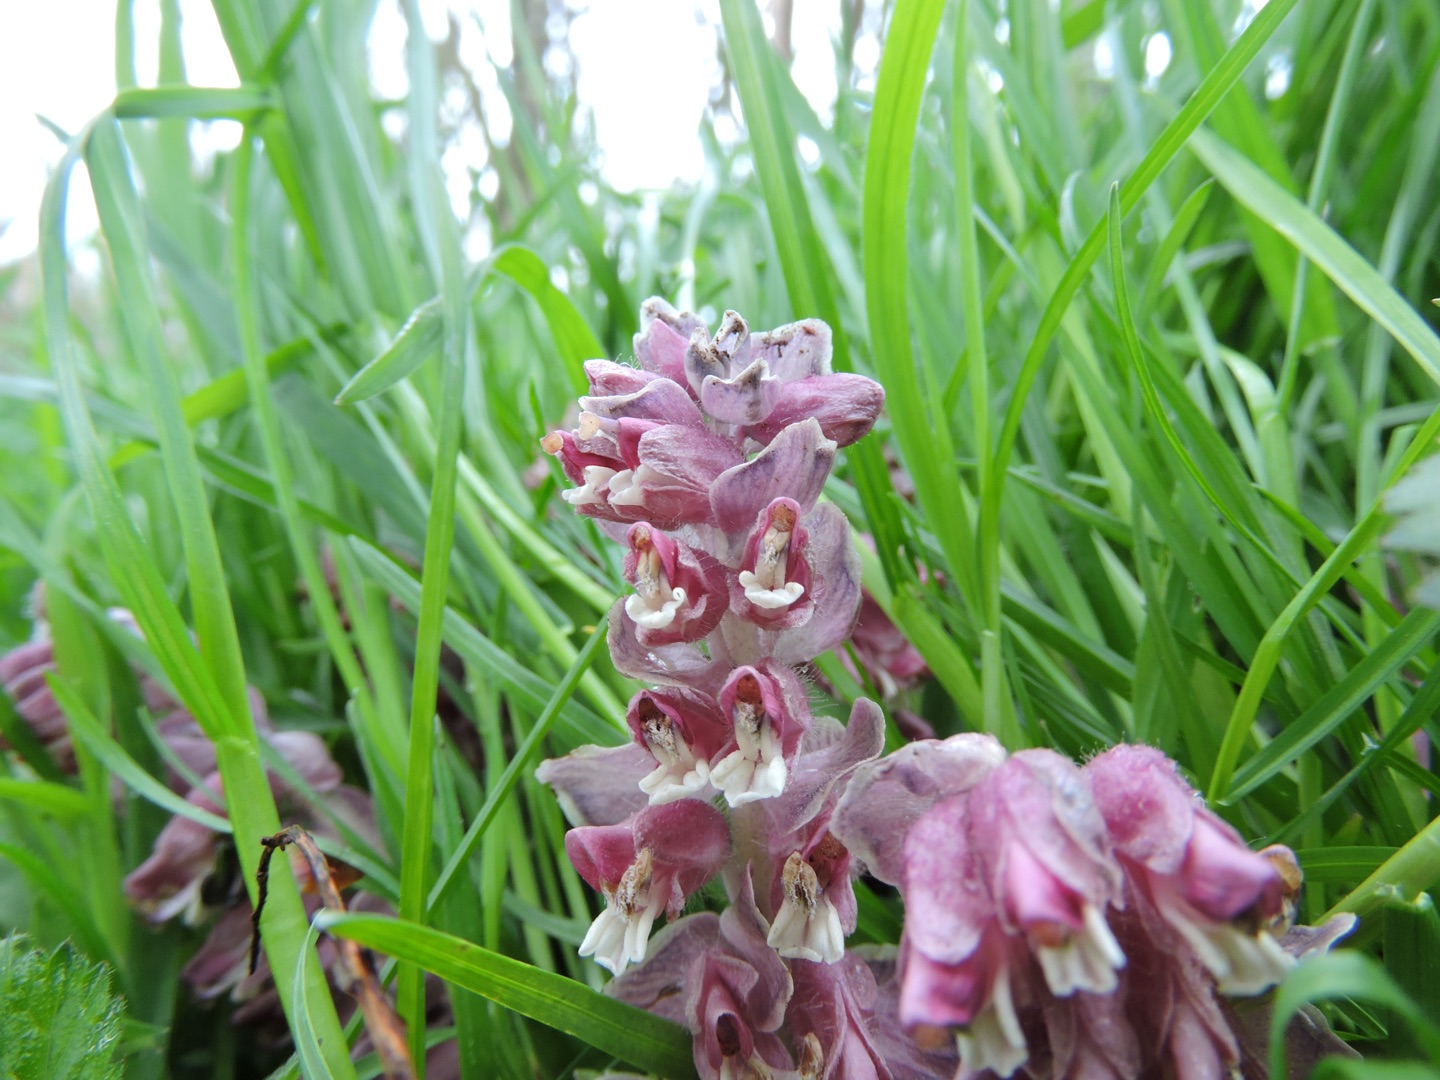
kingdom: Plantae
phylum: Tracheophyta
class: Magnoliopsida
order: Lamiales
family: Orobanchaceae
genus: Lathraea
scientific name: Lathraea squamaria
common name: Skælrod
